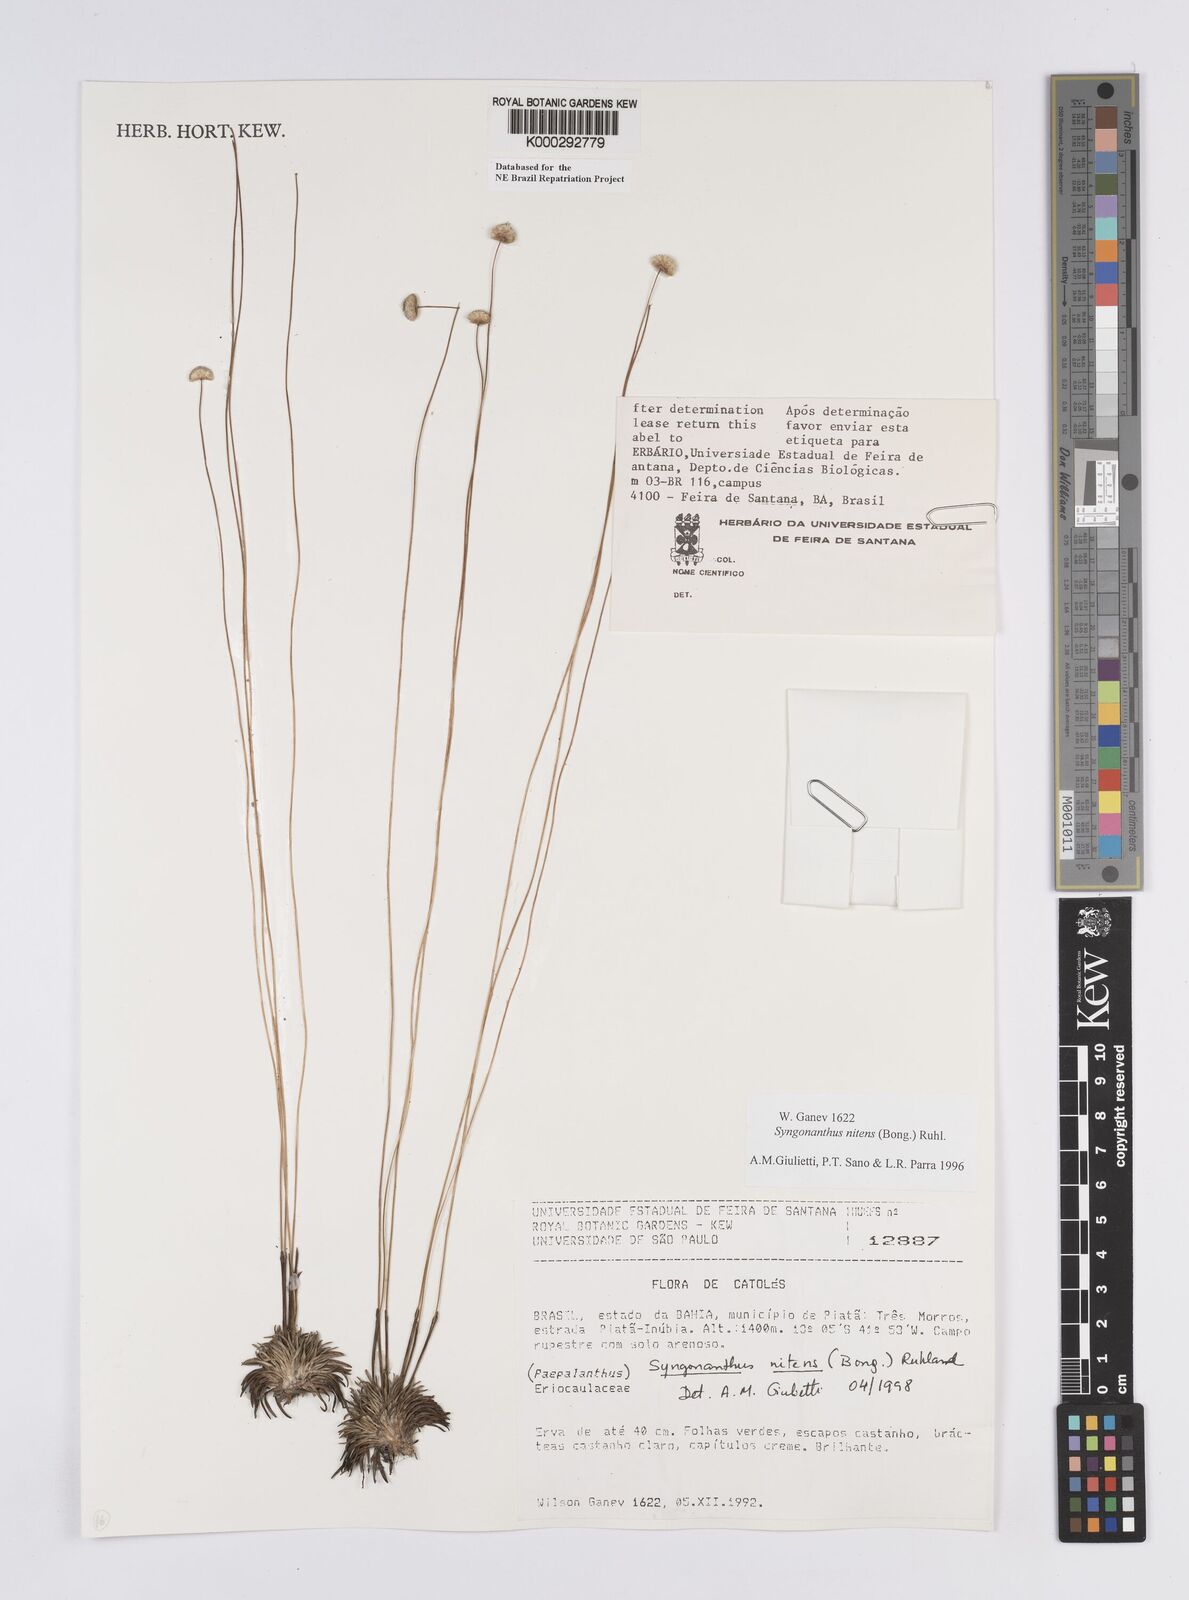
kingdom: Plantae
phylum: Tracheophyta
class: Liliopsida
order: Poales
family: Eriocaulaceae
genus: Syngonanthus
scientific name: Syngonanthus
